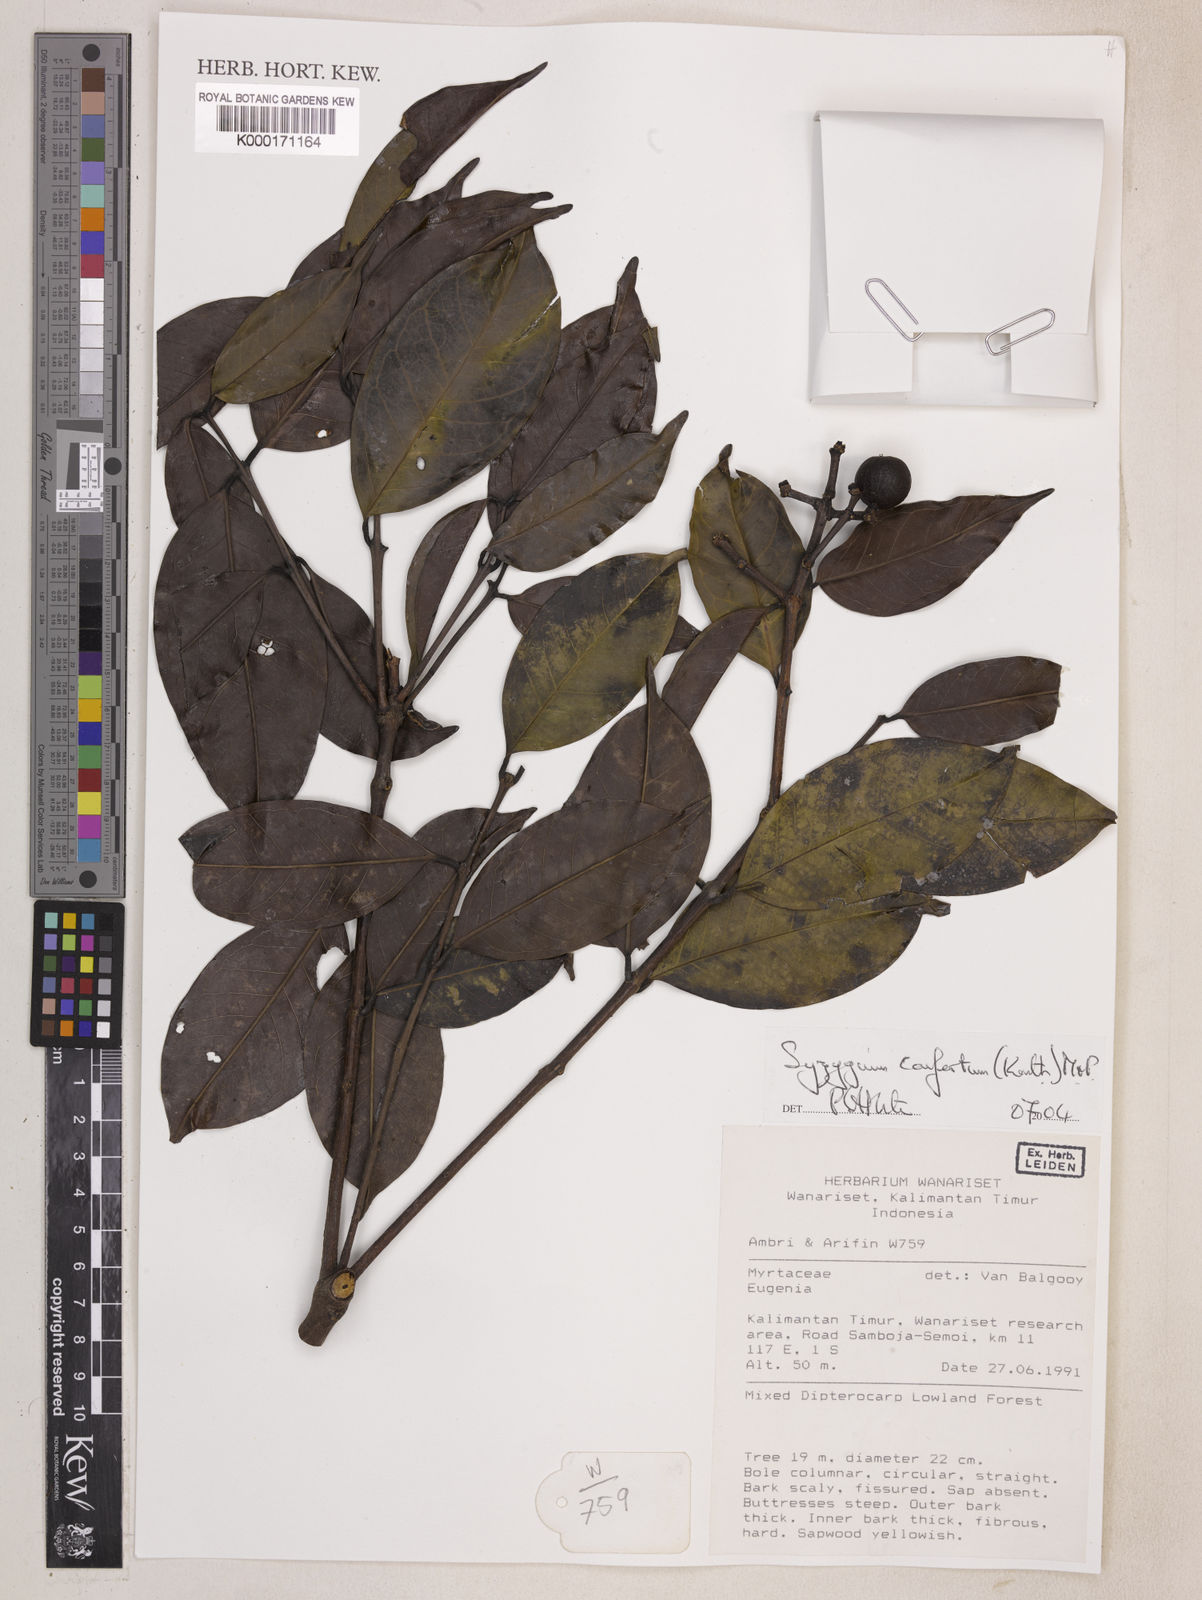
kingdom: Plantae
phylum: Tracheophyta
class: Magnoliopsida
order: Myrtales
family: Myrtaceae
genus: Syzygium
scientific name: Syzygium confertum
